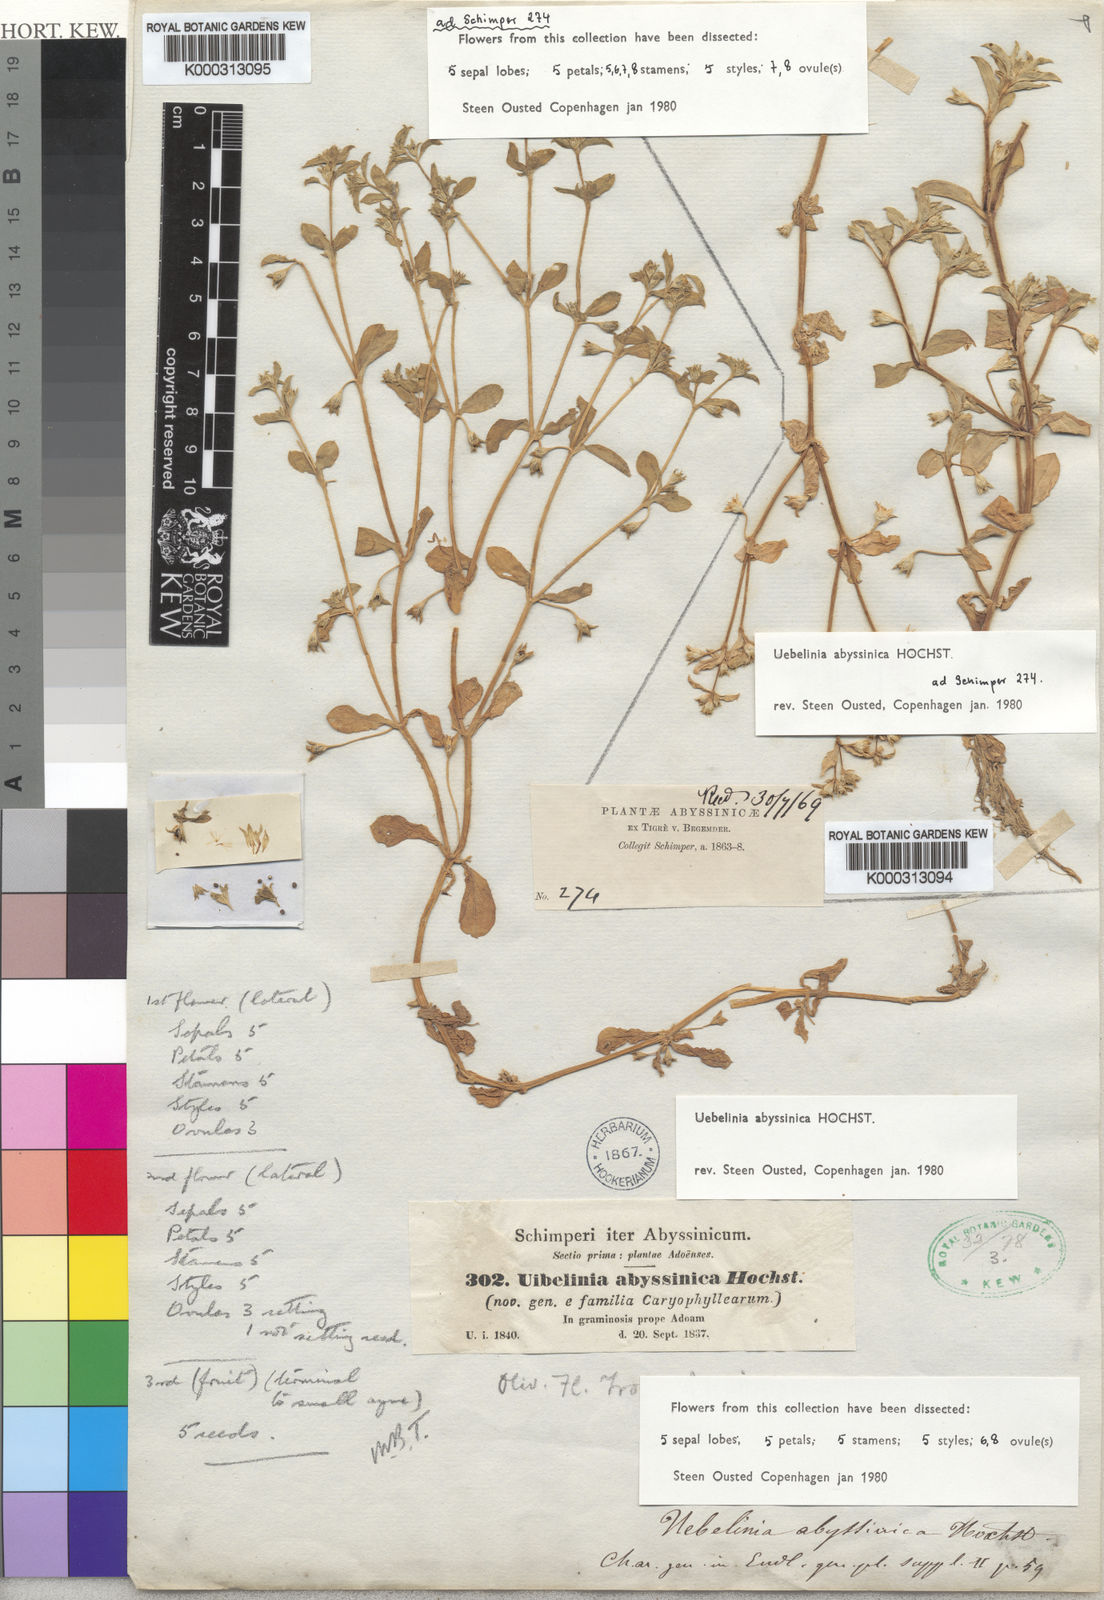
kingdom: Plantae
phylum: Tracheophyta
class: Magnoliopsida
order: Caryophyllales
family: Caryophyllaceae
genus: Silene
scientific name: Silene abyssinica
